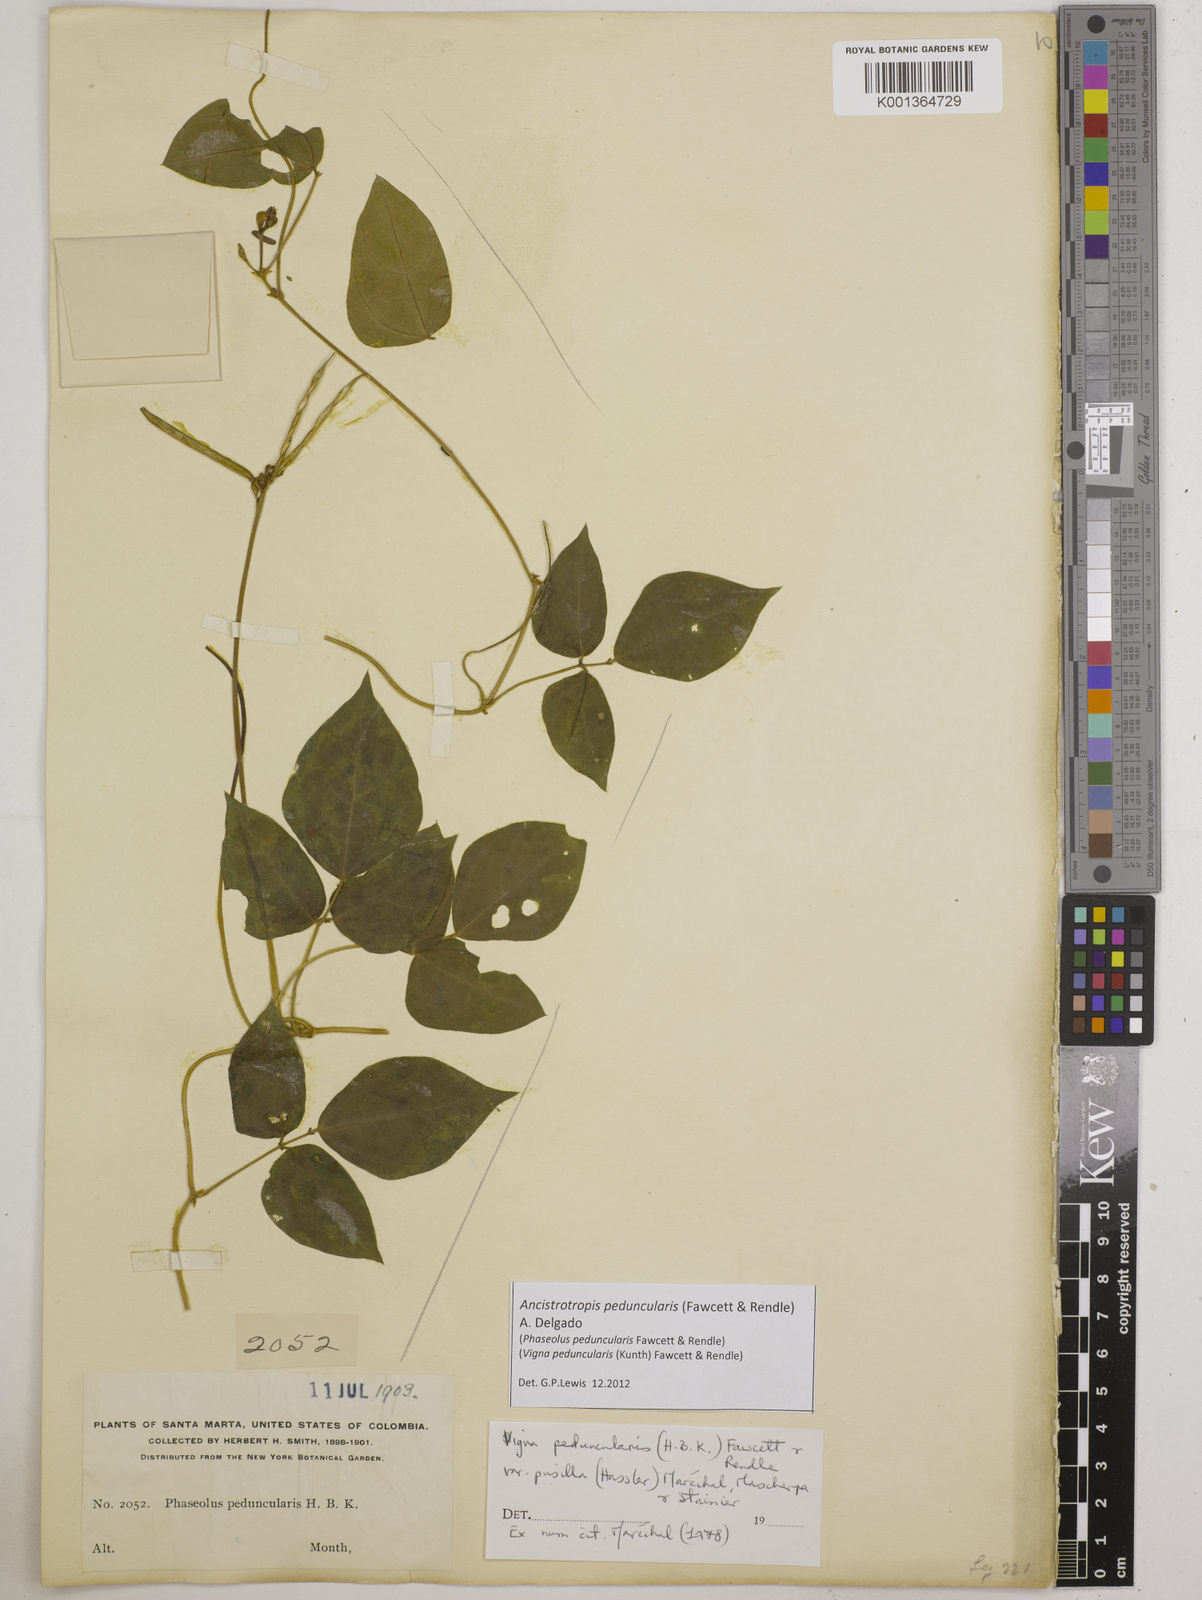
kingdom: Plantae
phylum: Tracheophyta
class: Magnoliopsida
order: Fabales
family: Fabaceae
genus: Ancistrotropis
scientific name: Ancistrotropis peduncularis
